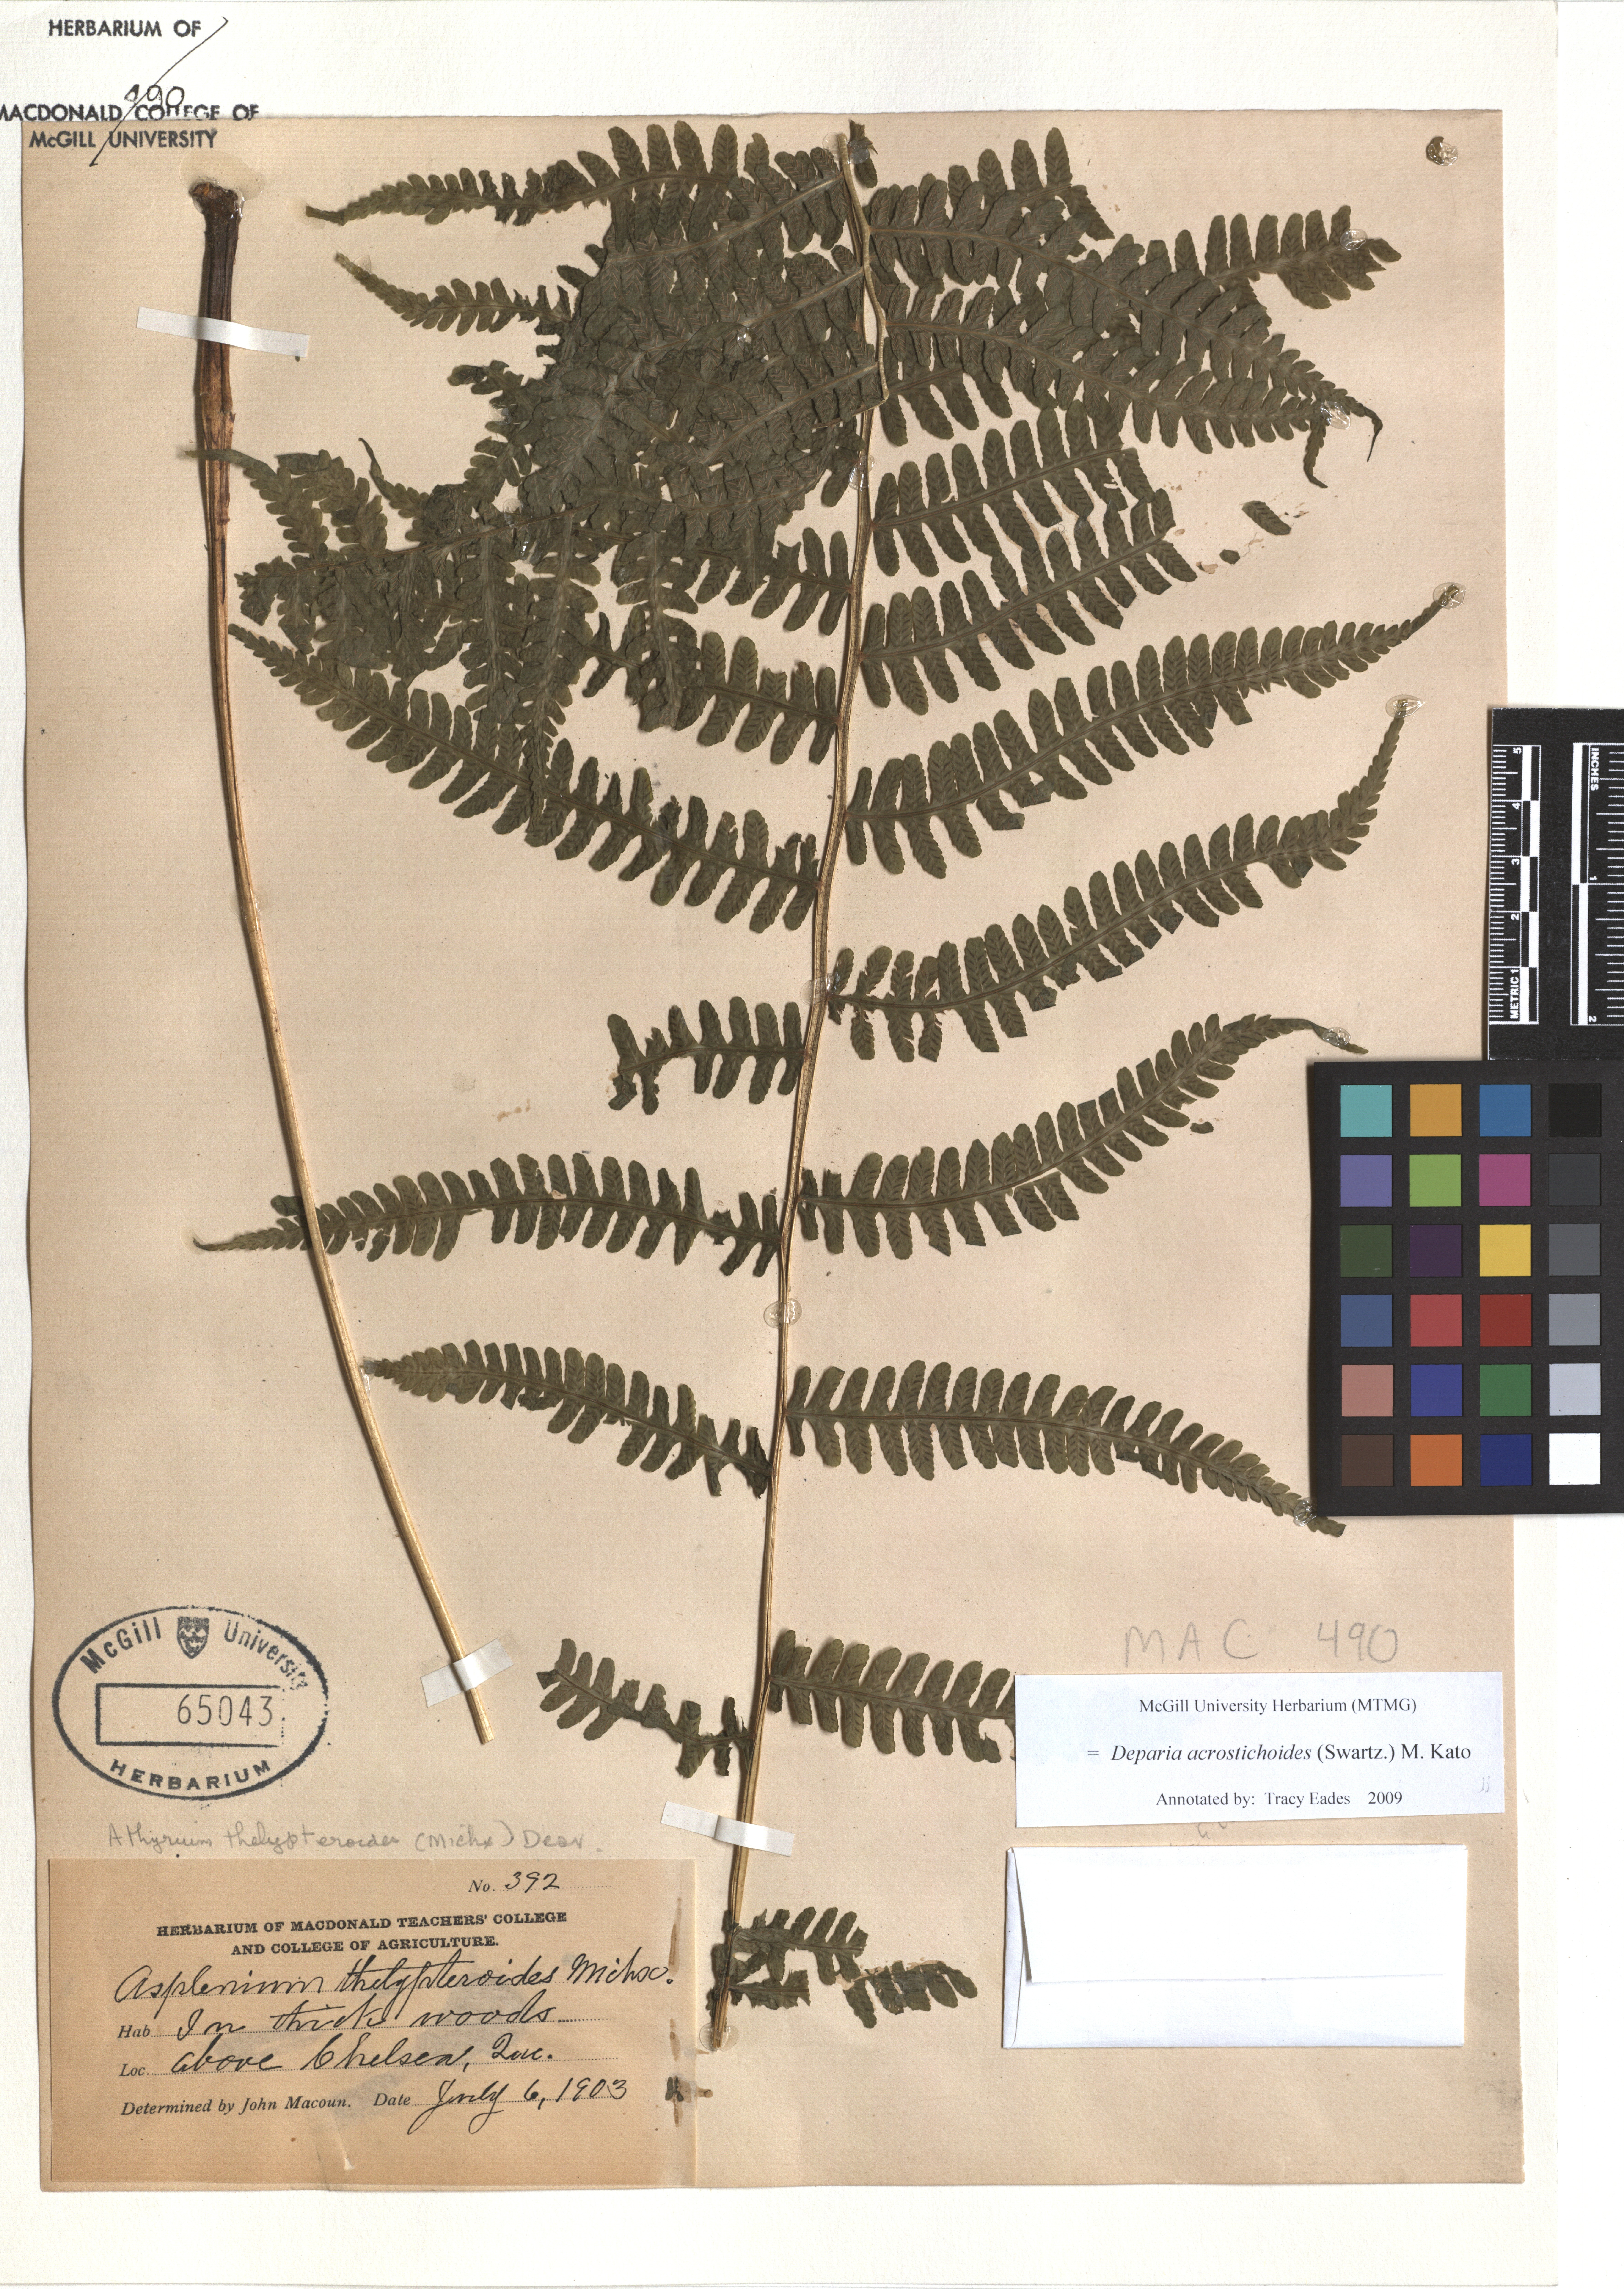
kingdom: Plantae
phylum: Tracheophyta
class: Polypodiopsida
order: Polypodiales
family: Athyriaceae
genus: Deparia
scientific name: Deparia acrostichoides
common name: Silver false spleenwort
